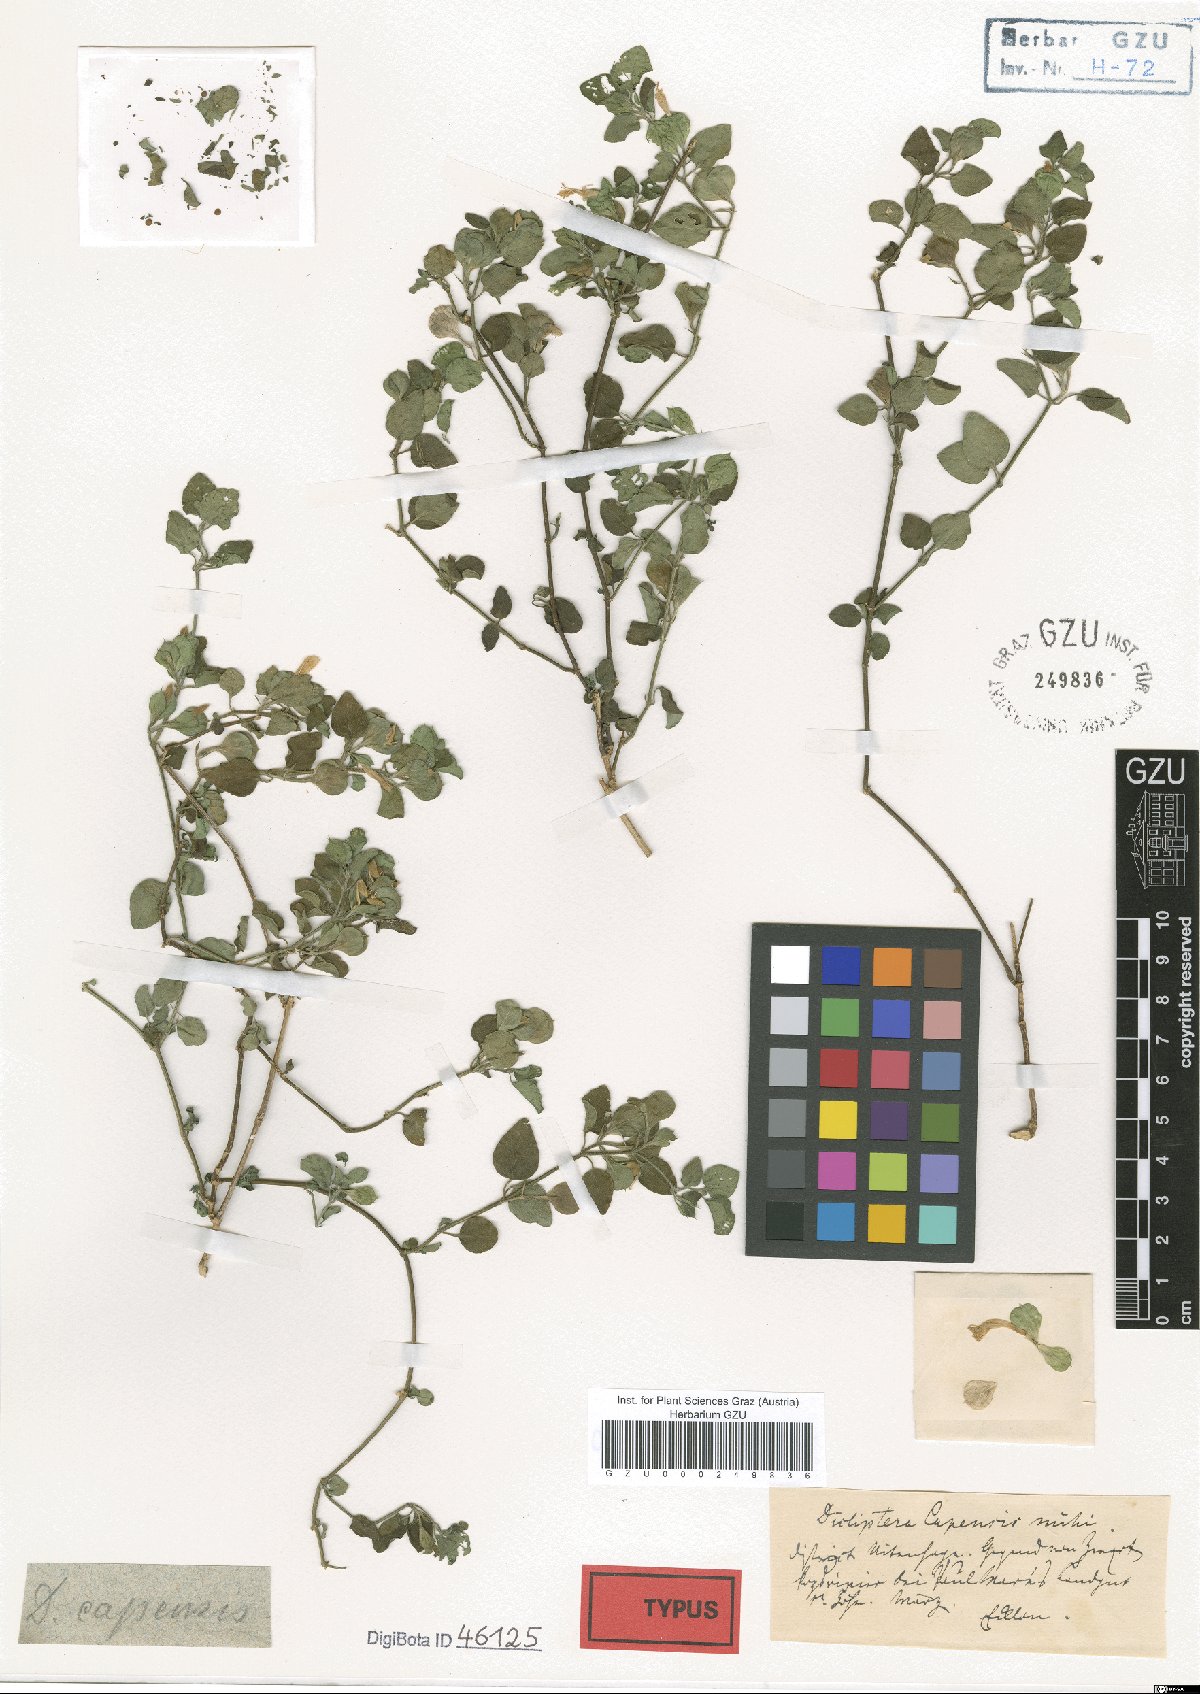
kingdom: Plantae
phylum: Tracheophyta
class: Magnoliopsida
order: Lamiales
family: Acanthaceae
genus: Dicliptera
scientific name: Dicliptera capensis
